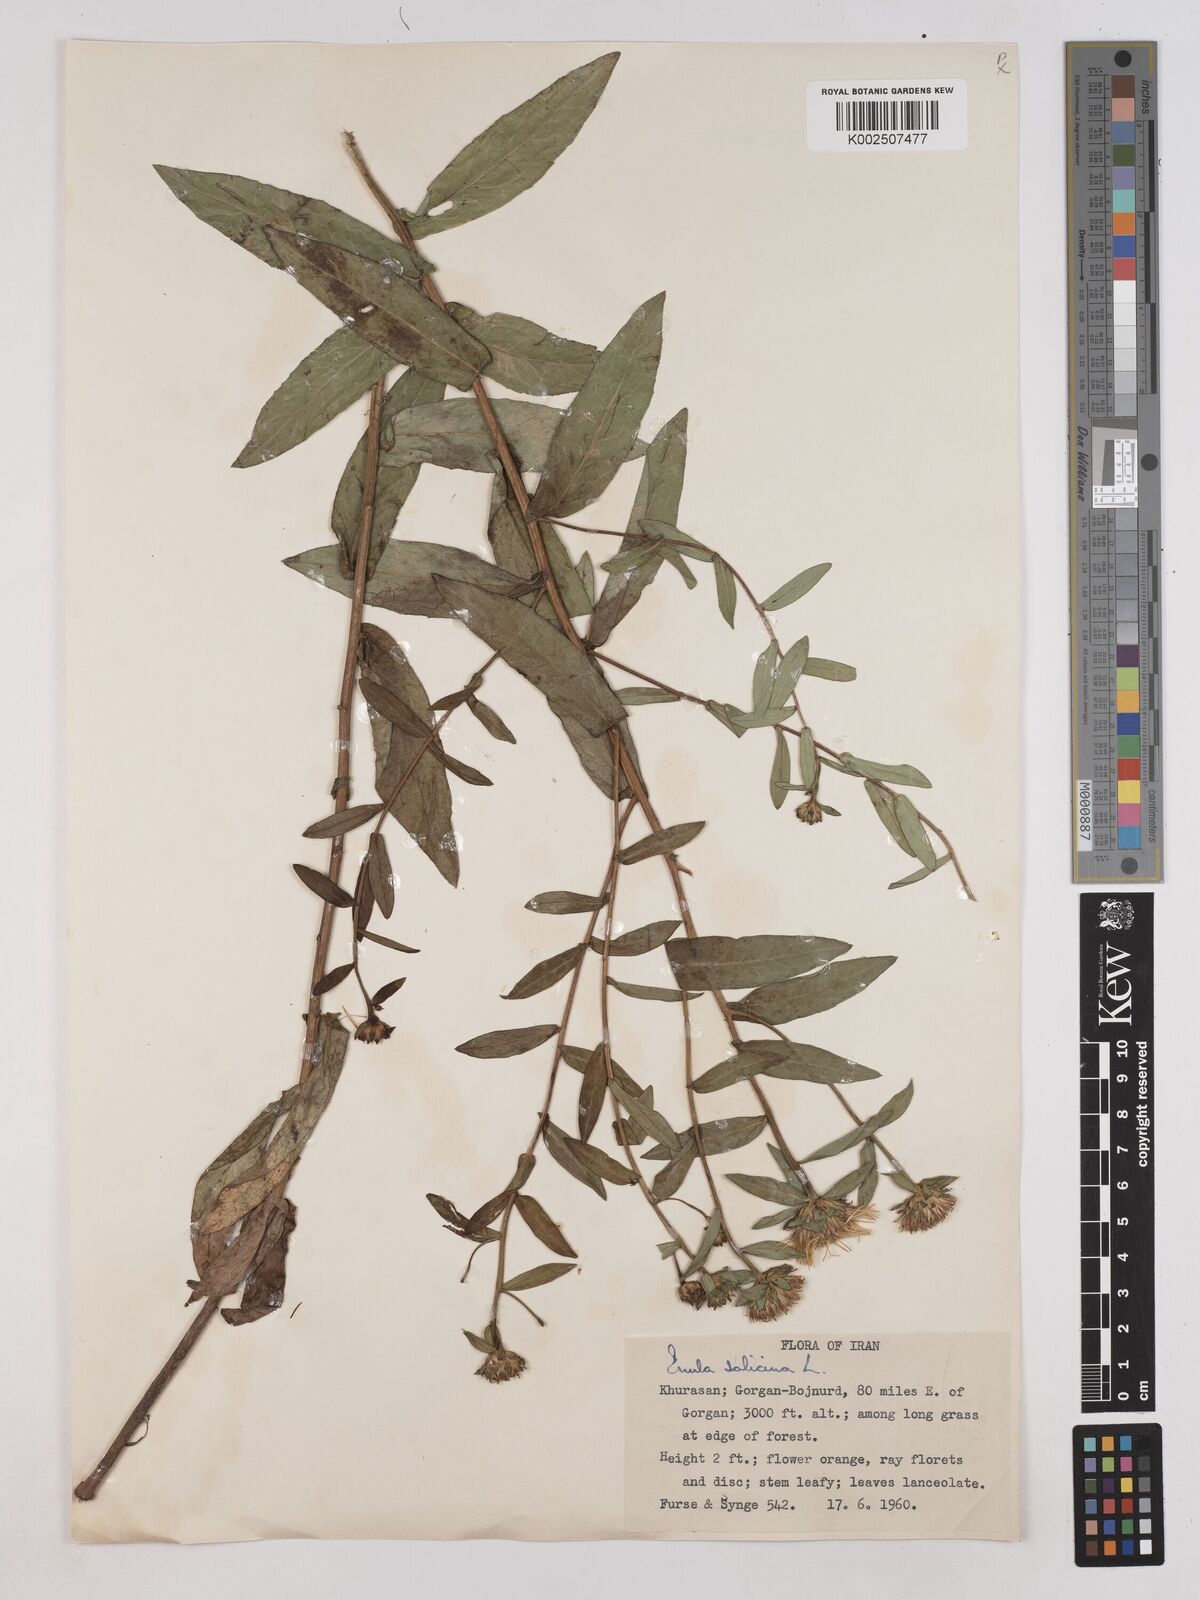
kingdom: Plantae
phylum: Tracheophyta
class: Magnoliopsida
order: Asterales
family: Asteraceae
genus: Pentanema
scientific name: Pentanema salicinum
